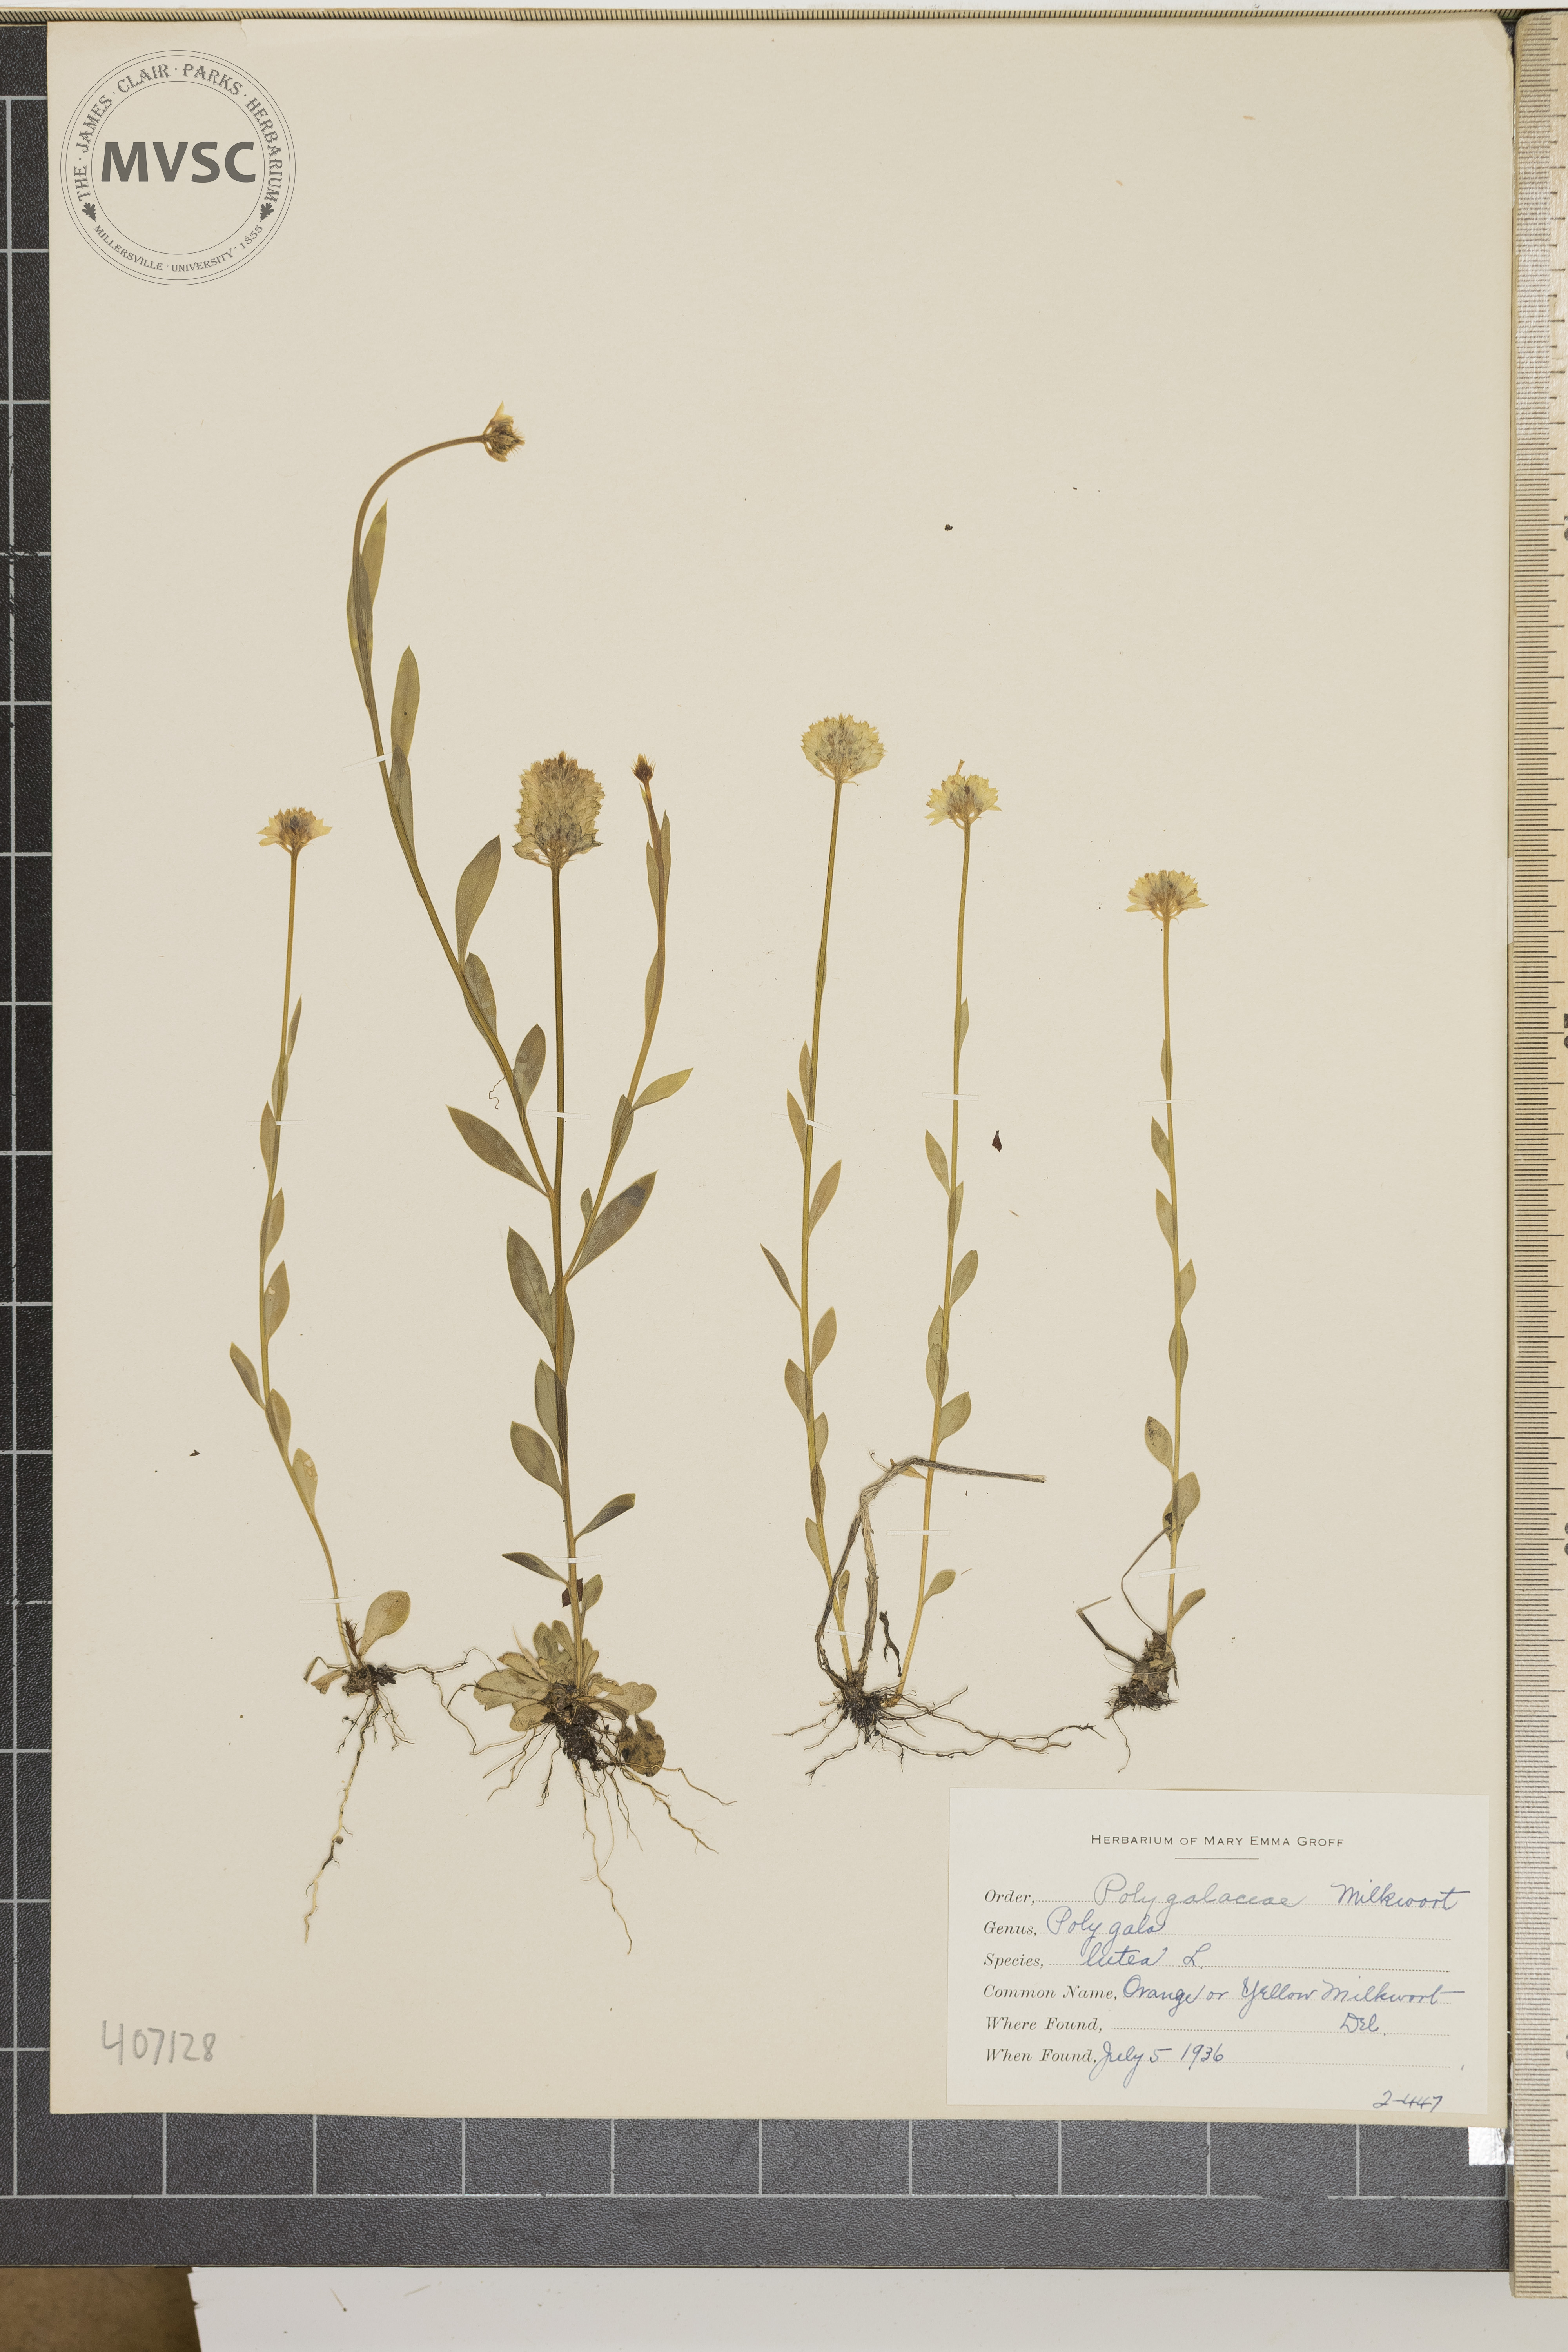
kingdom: Plantae
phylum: Tracheophyta
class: Magnoliopsida
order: Fabales
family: Polygalaceae
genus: Polygala
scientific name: Polygala lutea
